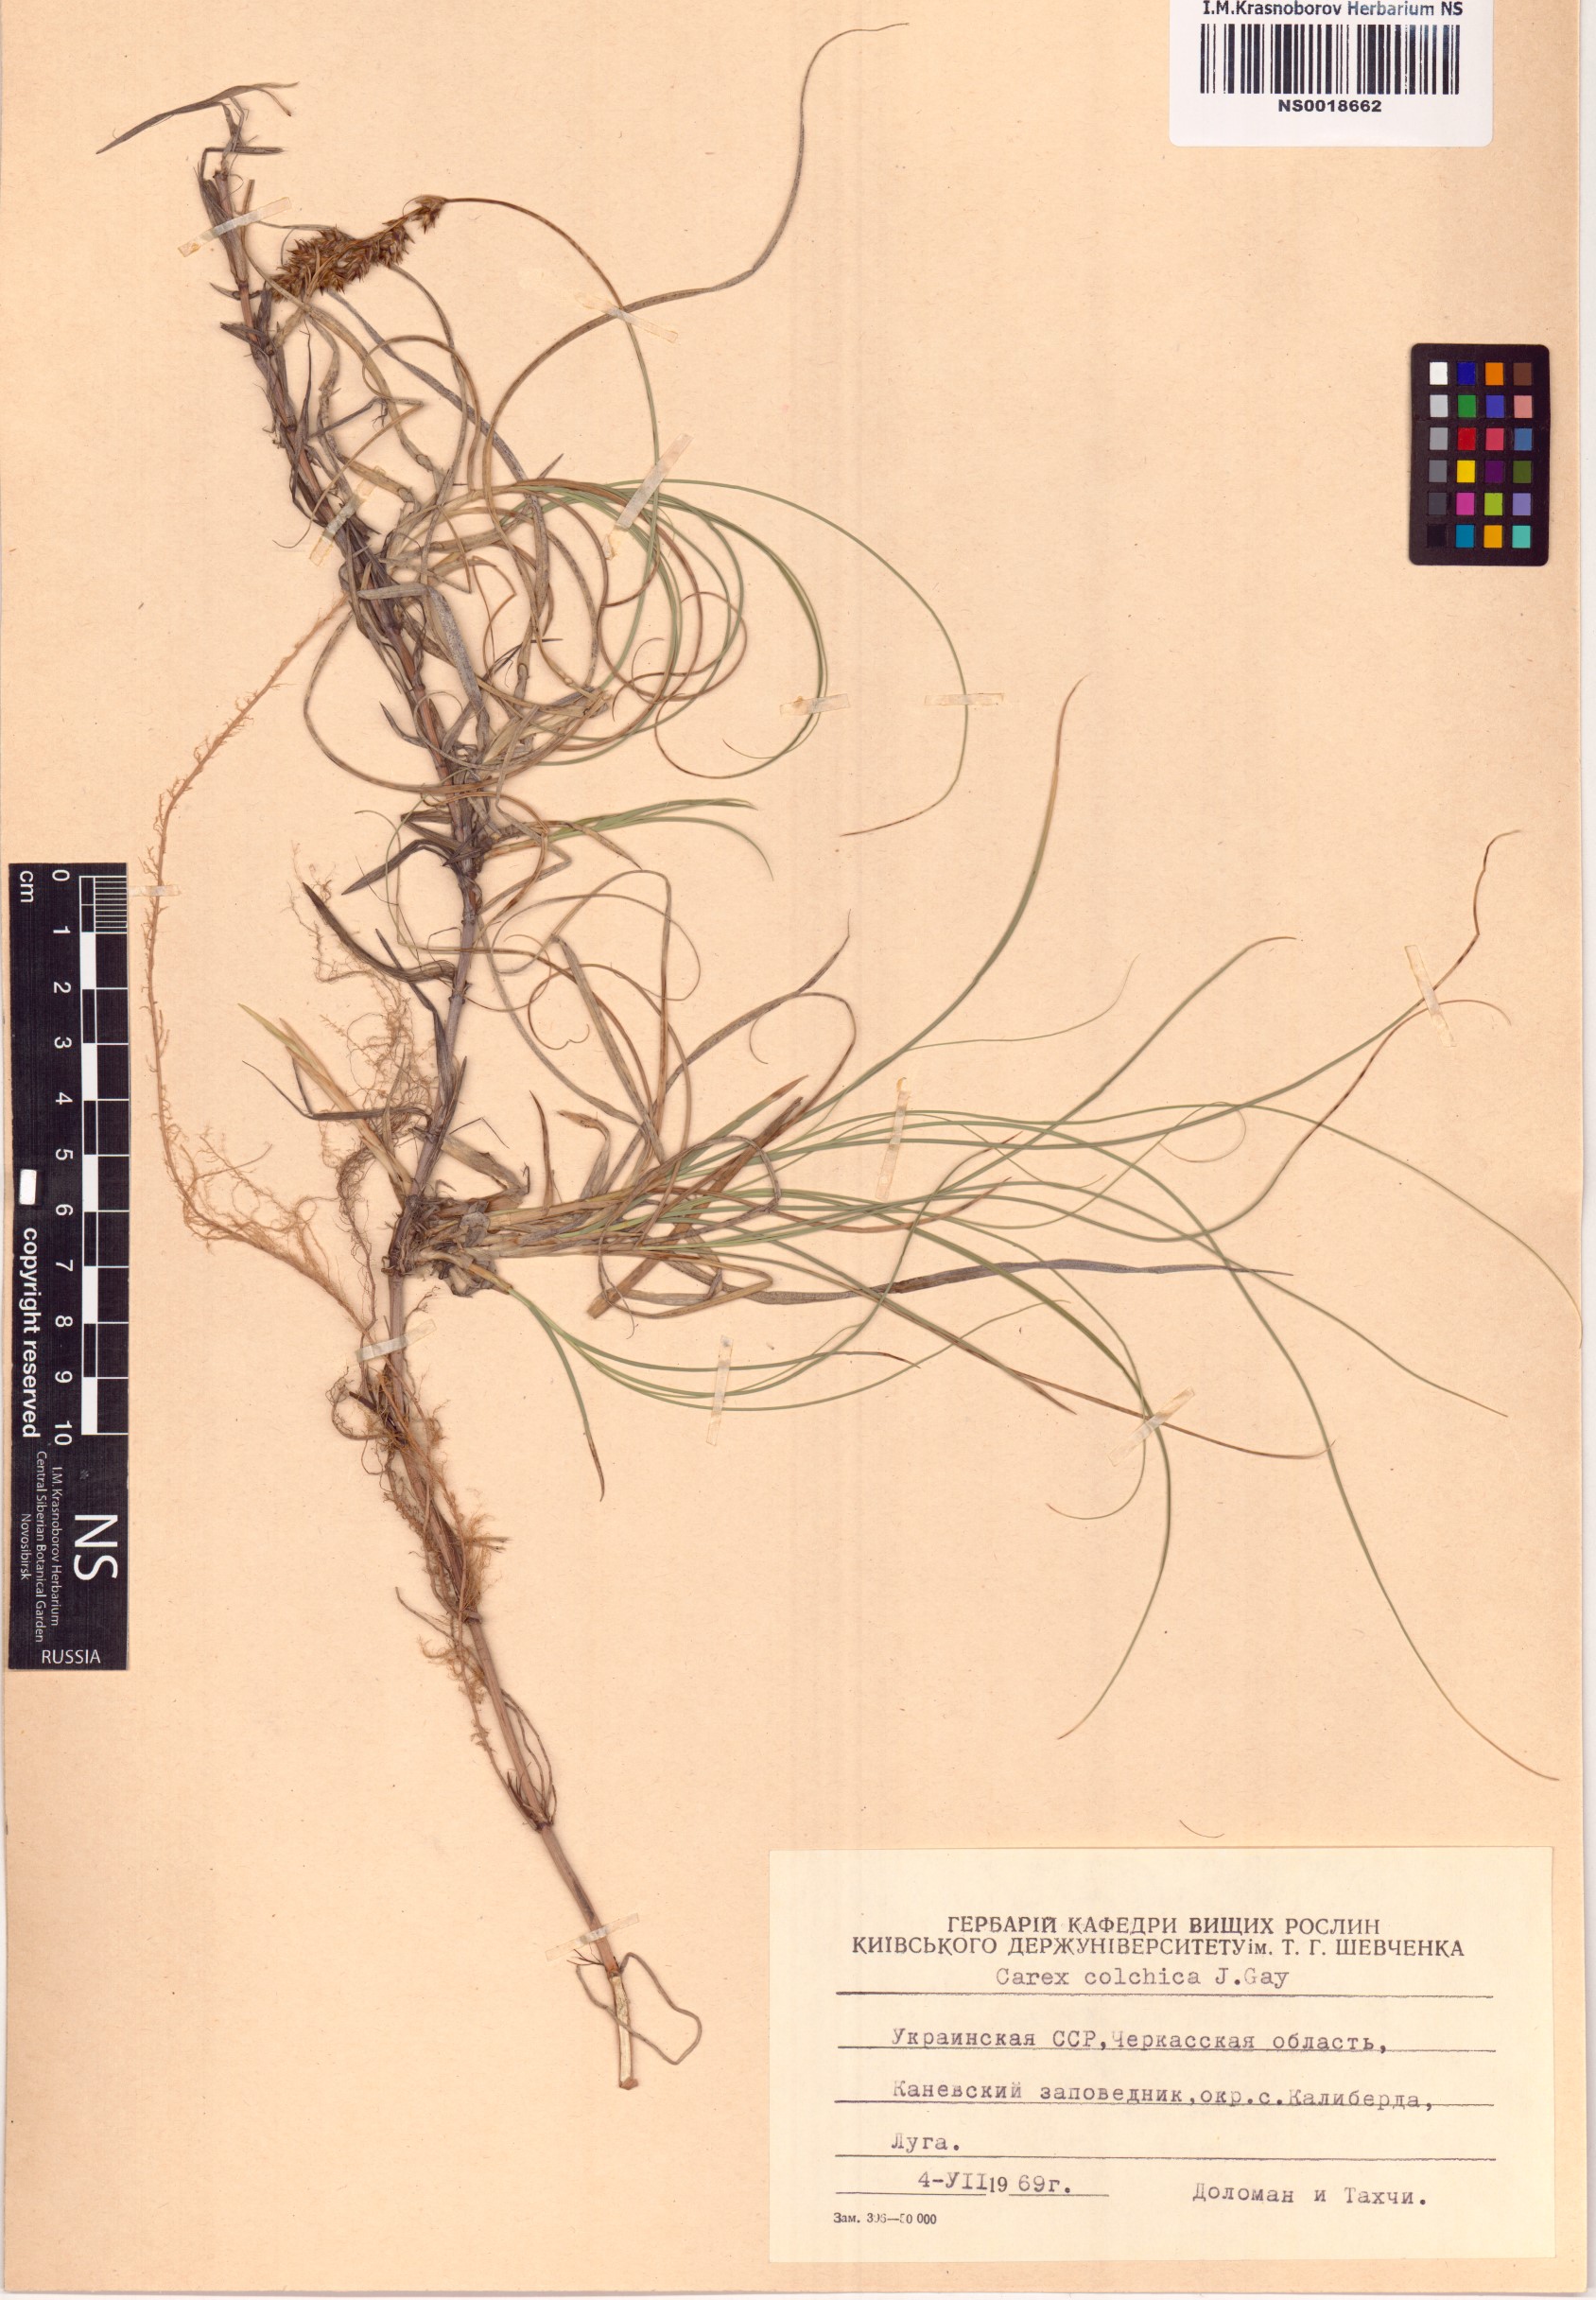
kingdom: Plantae
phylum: Tracheophyta
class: Liliopsida
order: Poales
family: Cyperaceae
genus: Carex
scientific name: Carex colchica
